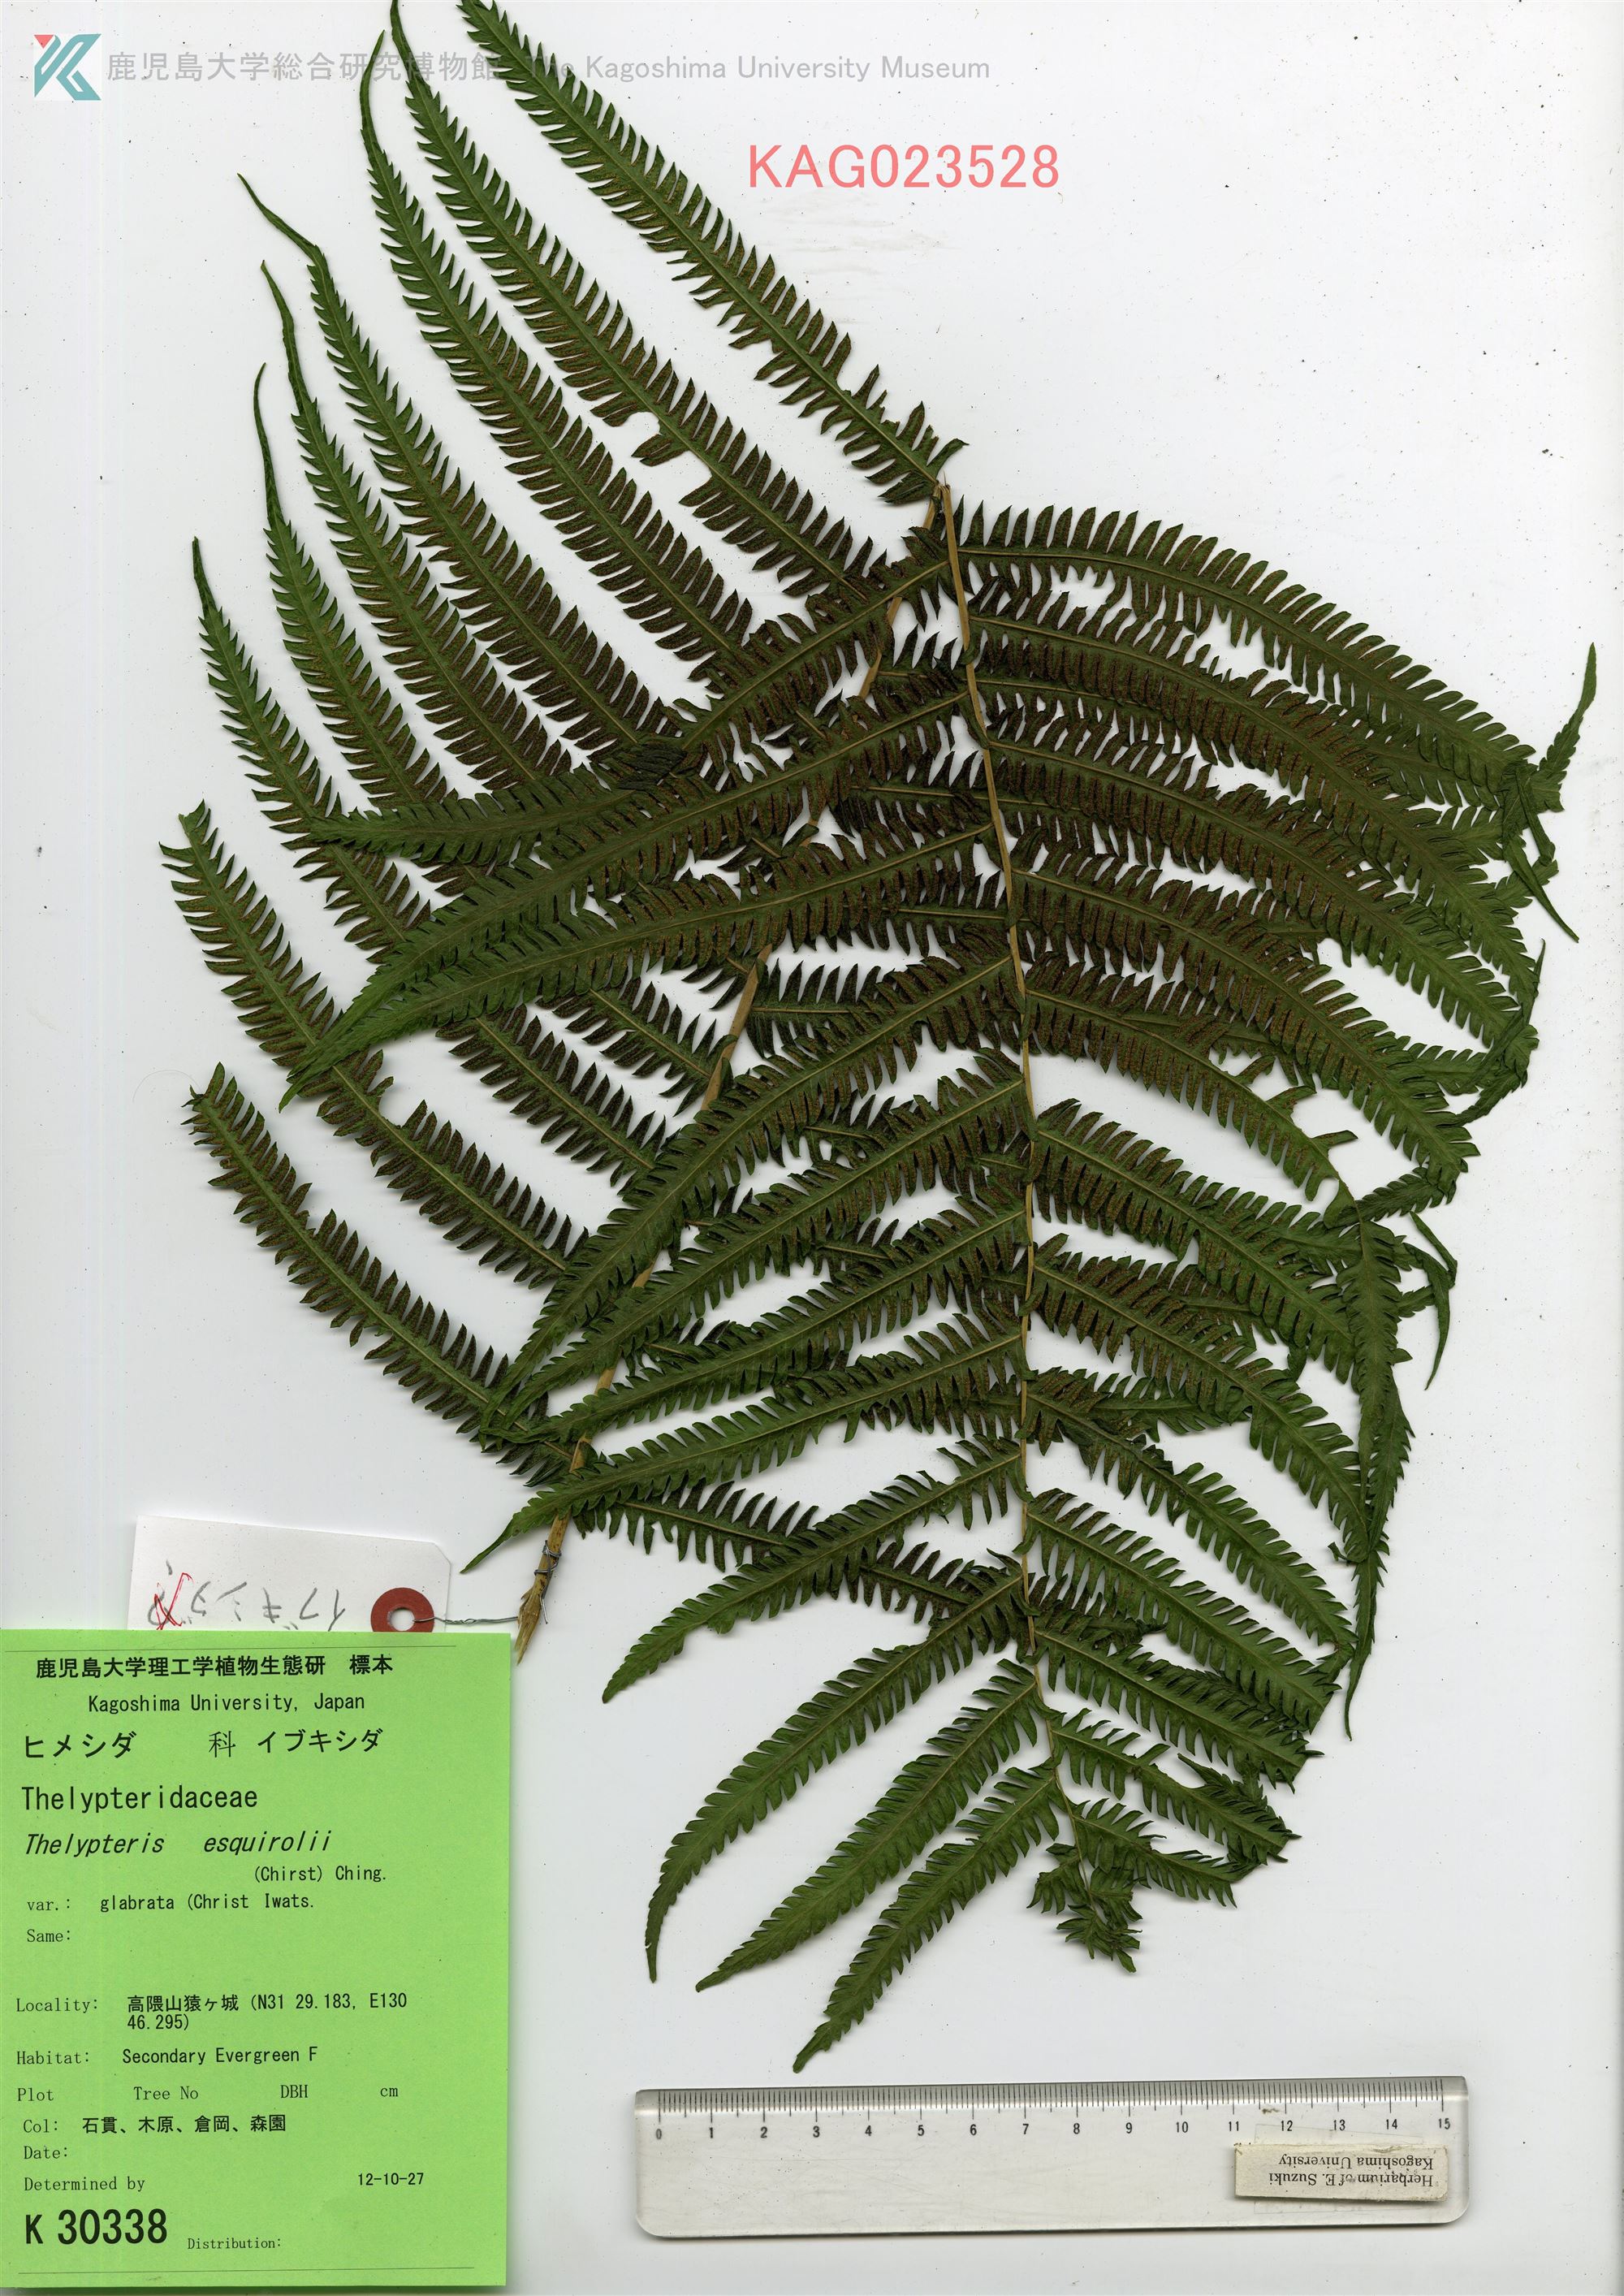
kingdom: Plantae
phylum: Tracheophyta
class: Polypodiopsida
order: Polypodiales
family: Thelypteridaceae
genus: Pseudocyclosorus
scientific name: Pseudocyclosorus esquirolii
